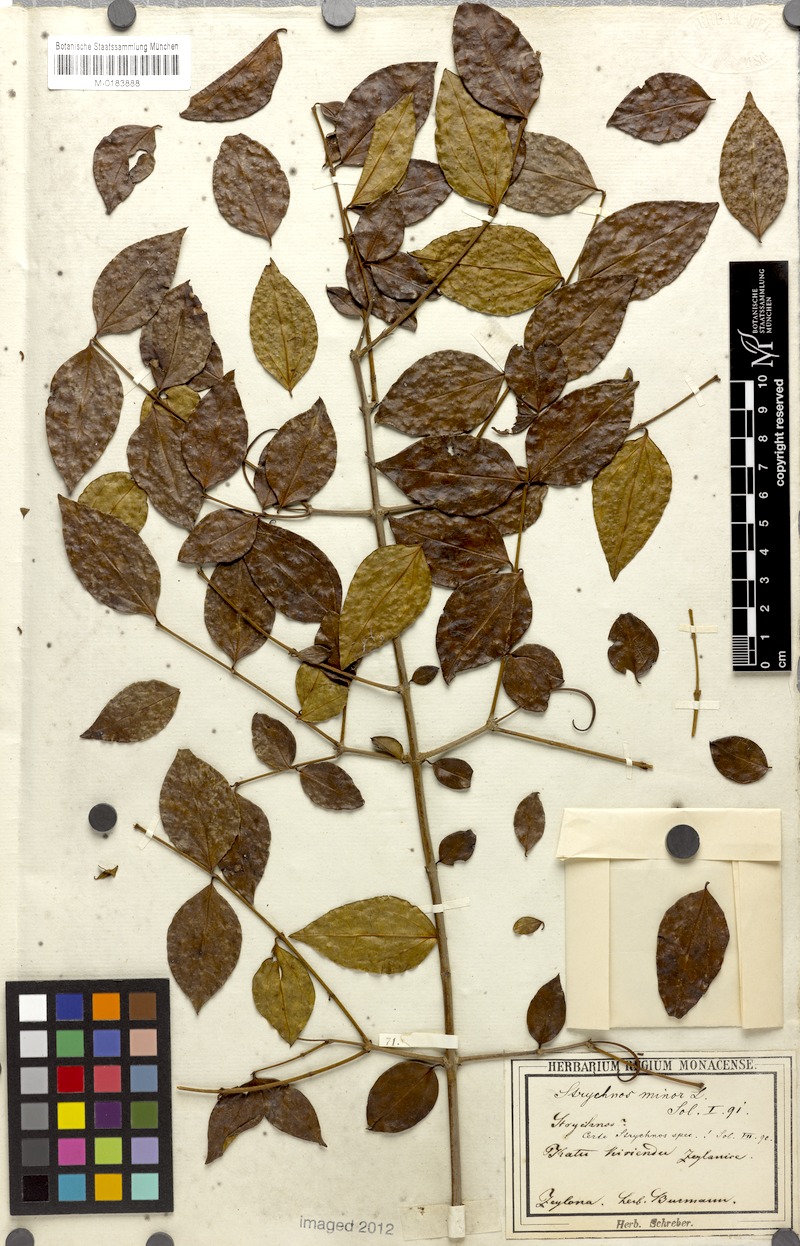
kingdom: Plantae
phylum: Tracheophyta
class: Magnoliopsida
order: Gentianales
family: Loganiaceae
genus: Strychnos
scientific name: Strychnos axillaris
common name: Strychninebush
